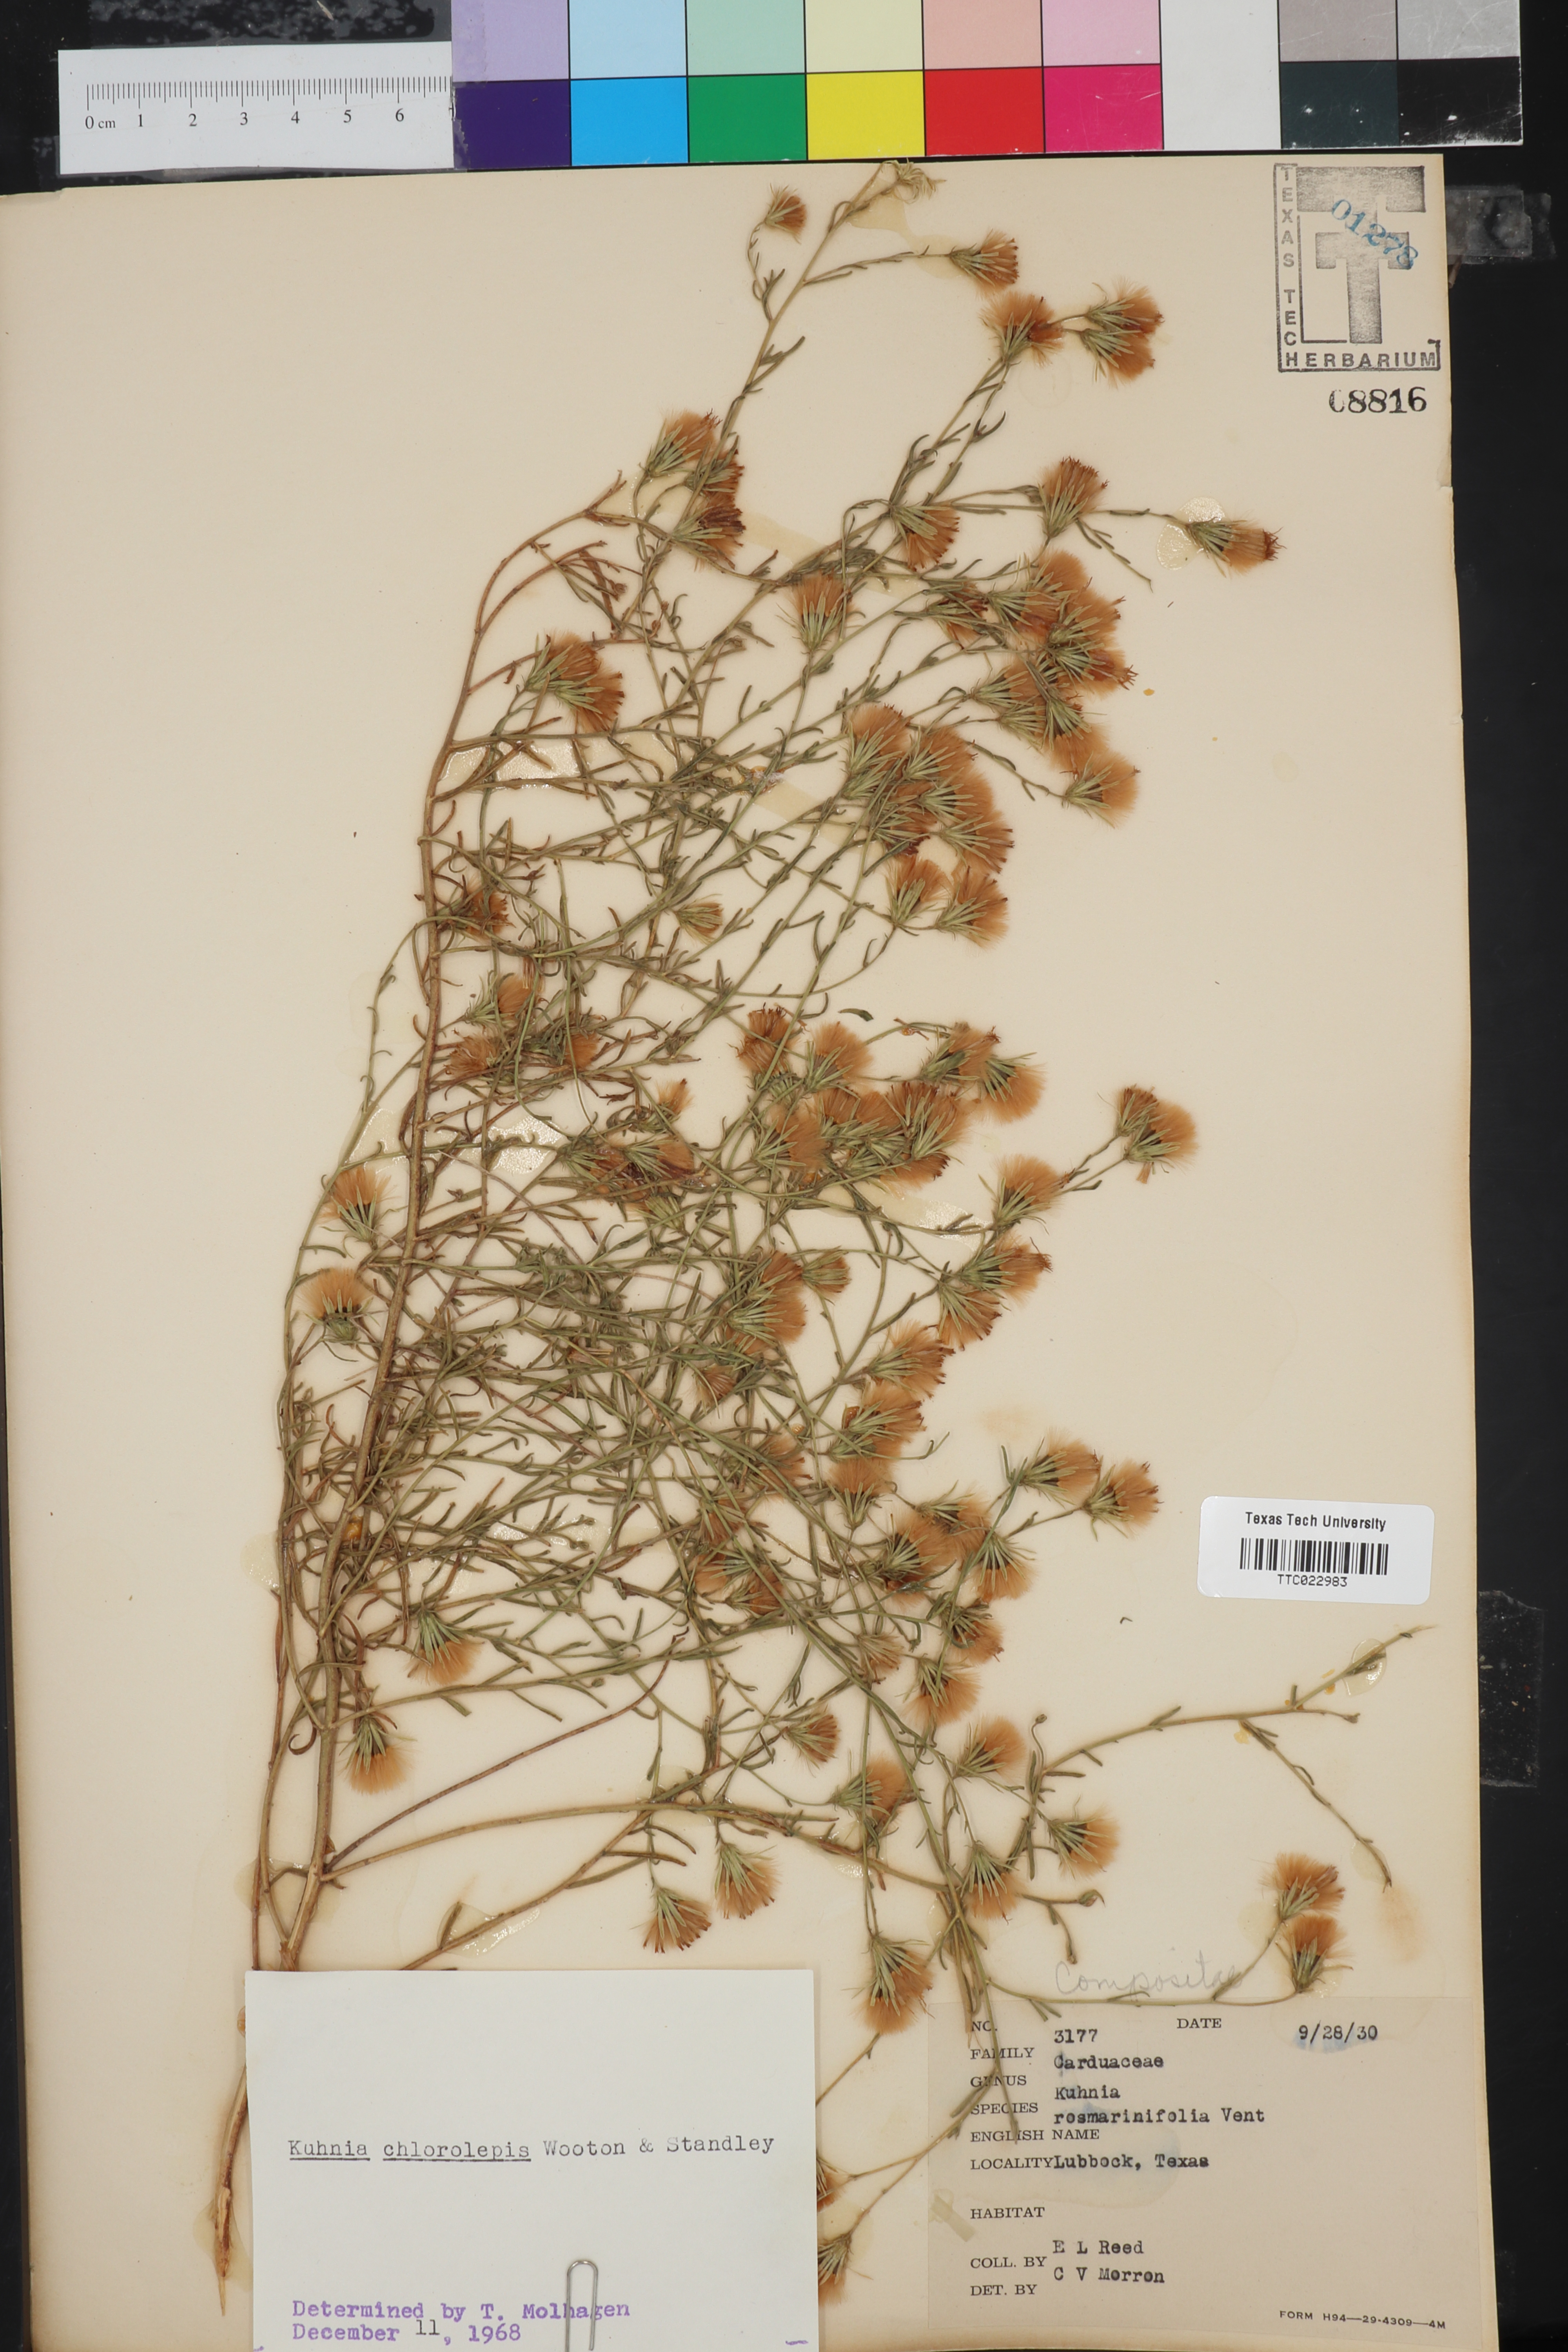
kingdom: Plantae
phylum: Tracheophyta
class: Magnoliopsida
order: Asterales
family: Asteraceae
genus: Brickellia
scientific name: Brickellia leptophylla
